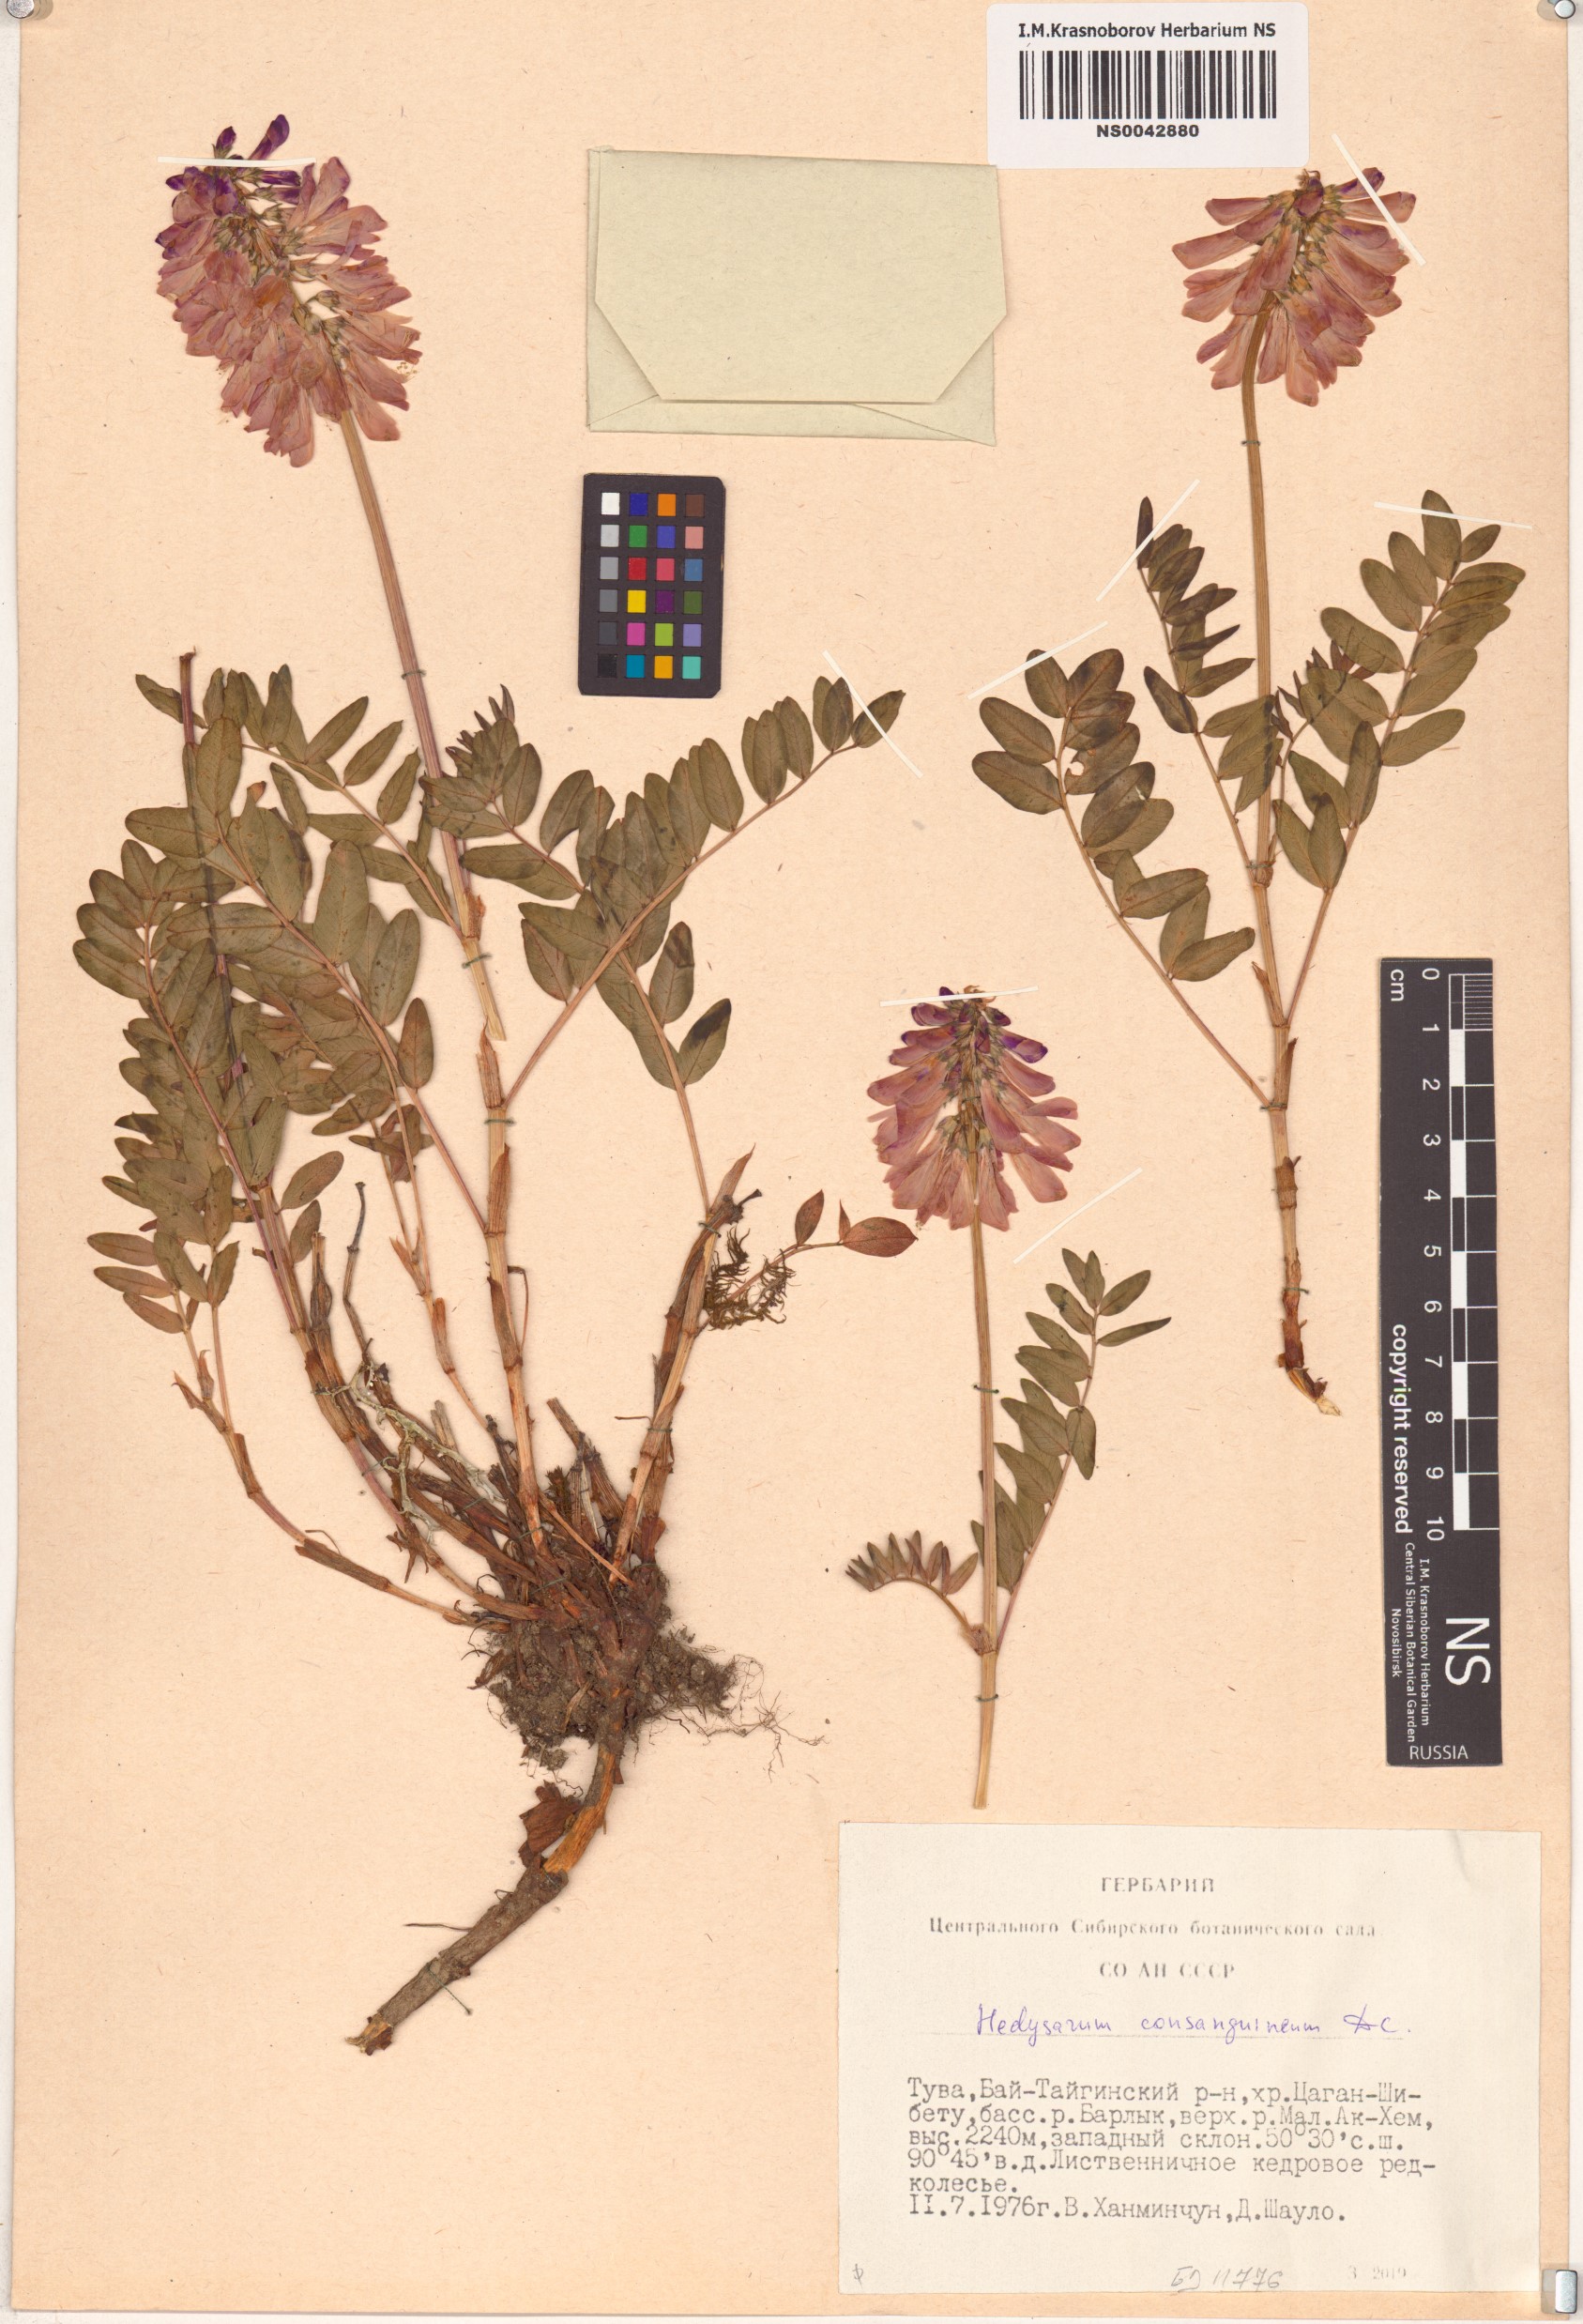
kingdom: Plantae
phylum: Tracheophyta
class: Magnoliopsida
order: Fabales
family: Fabaceae
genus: Hedysarum
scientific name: Hedysarum consanguineum
